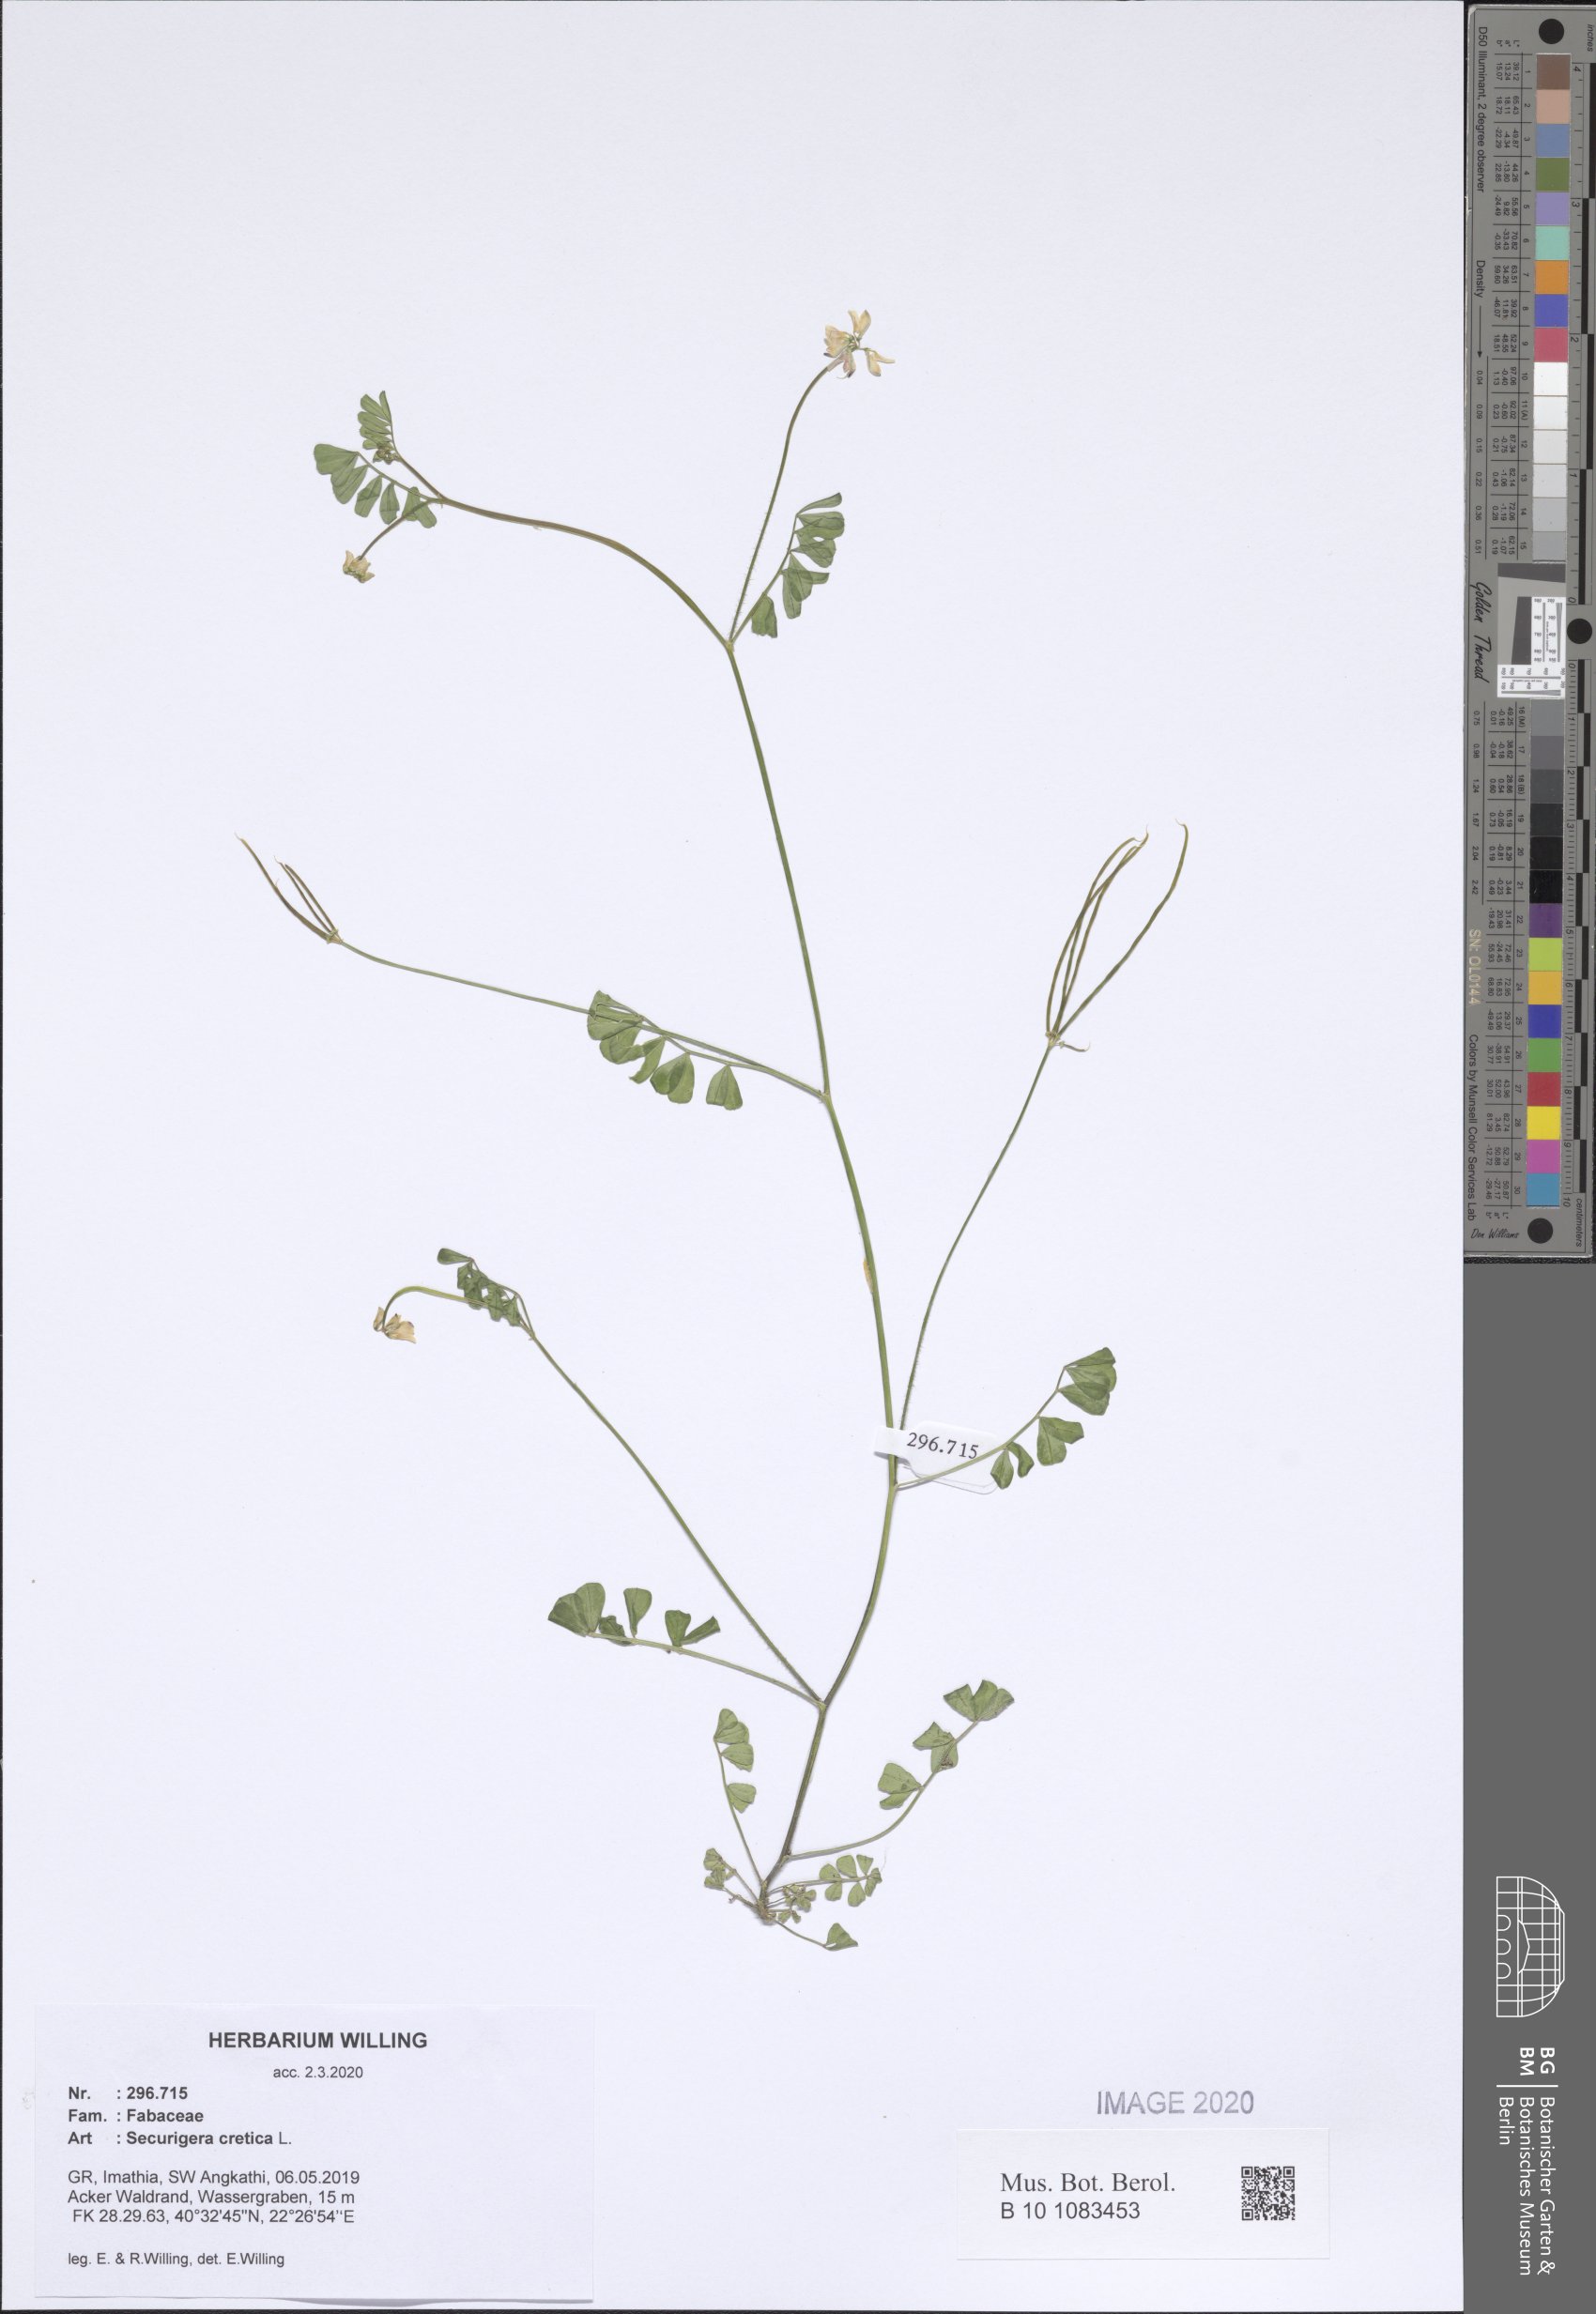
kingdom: Plantae
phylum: Tracheophyta
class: Magnoliopsida
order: Fabales
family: Fabaceae
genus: Coronilla
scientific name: Coronilla cretica
